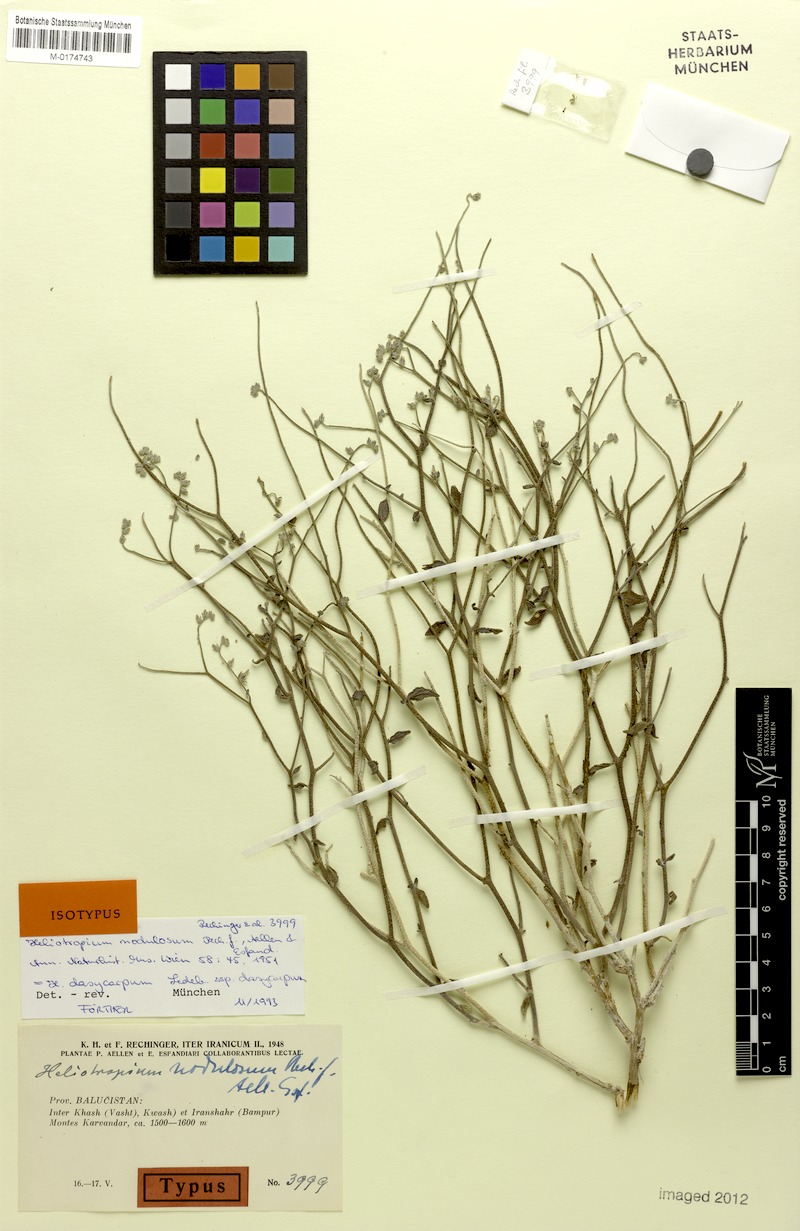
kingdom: Plantae
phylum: Tracheophyta
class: Magnoliopsida
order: Boraginales
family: Heliotropiaceae
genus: Heliotropium
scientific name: Heliotropium dasycarpum
